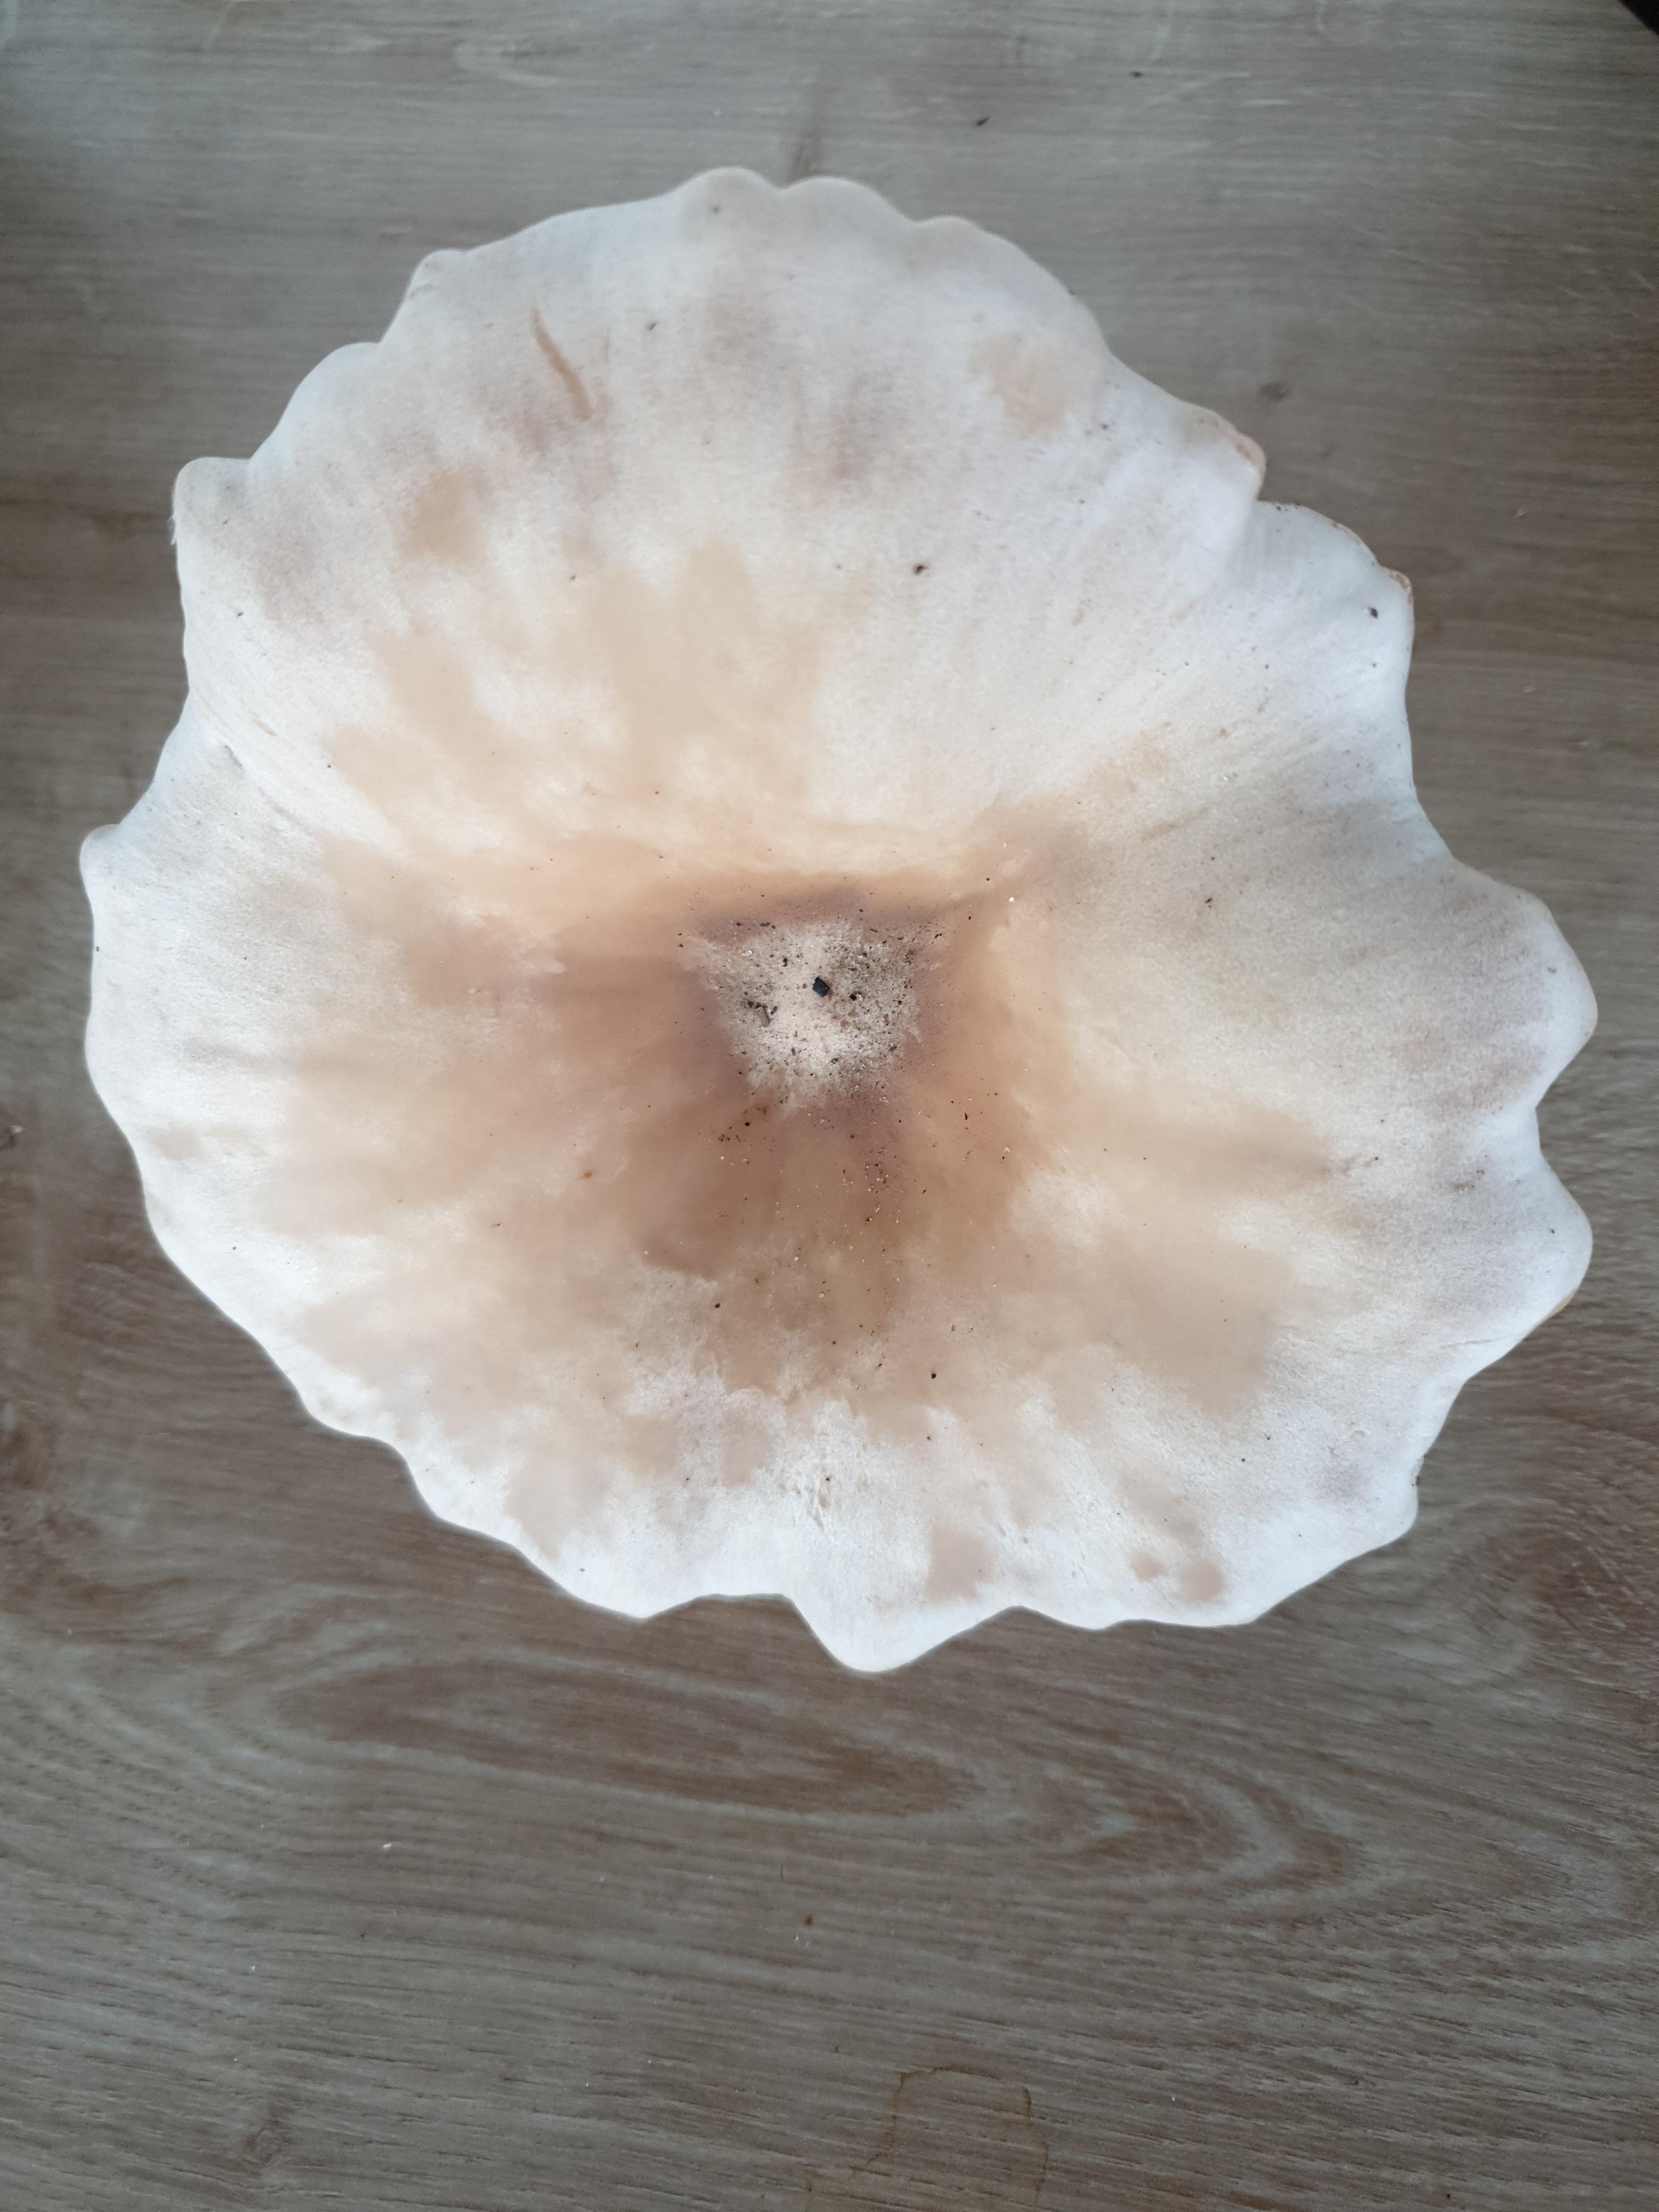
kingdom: Fungi
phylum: Basidiomycota
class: Agaricomycetes
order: Agaricales
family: Tricholomataceae
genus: Infundibulicybe
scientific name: Infundibulicybe geotropa
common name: stor tragthat
